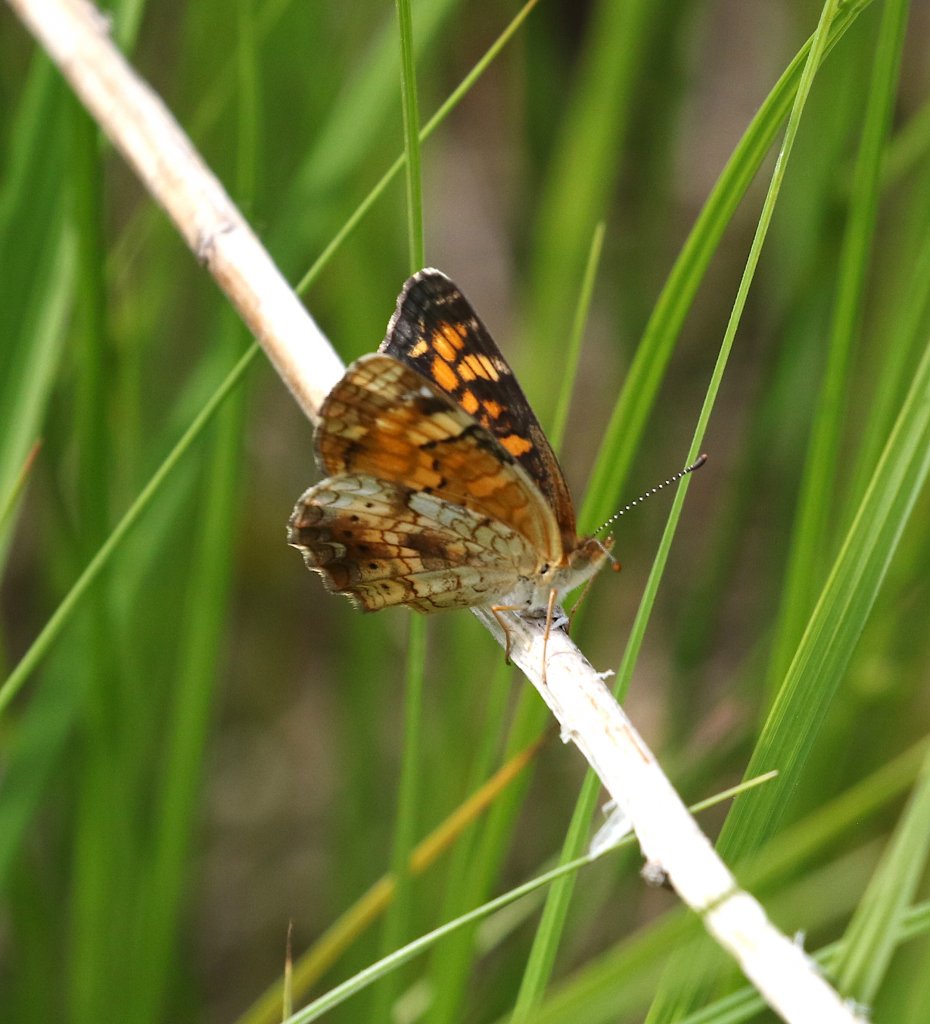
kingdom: Animalia
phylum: Arthropoda
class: Insecta
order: Lepidoptera
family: Nymphalidae
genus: Phyciodes
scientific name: Phyciodes tharos
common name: Pearl Crescent
